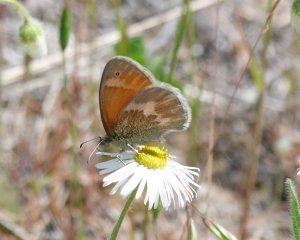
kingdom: Animalia
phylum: Arthropoda
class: Insecta
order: Lepidoptera
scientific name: Lepidoptera
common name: Butterflies
